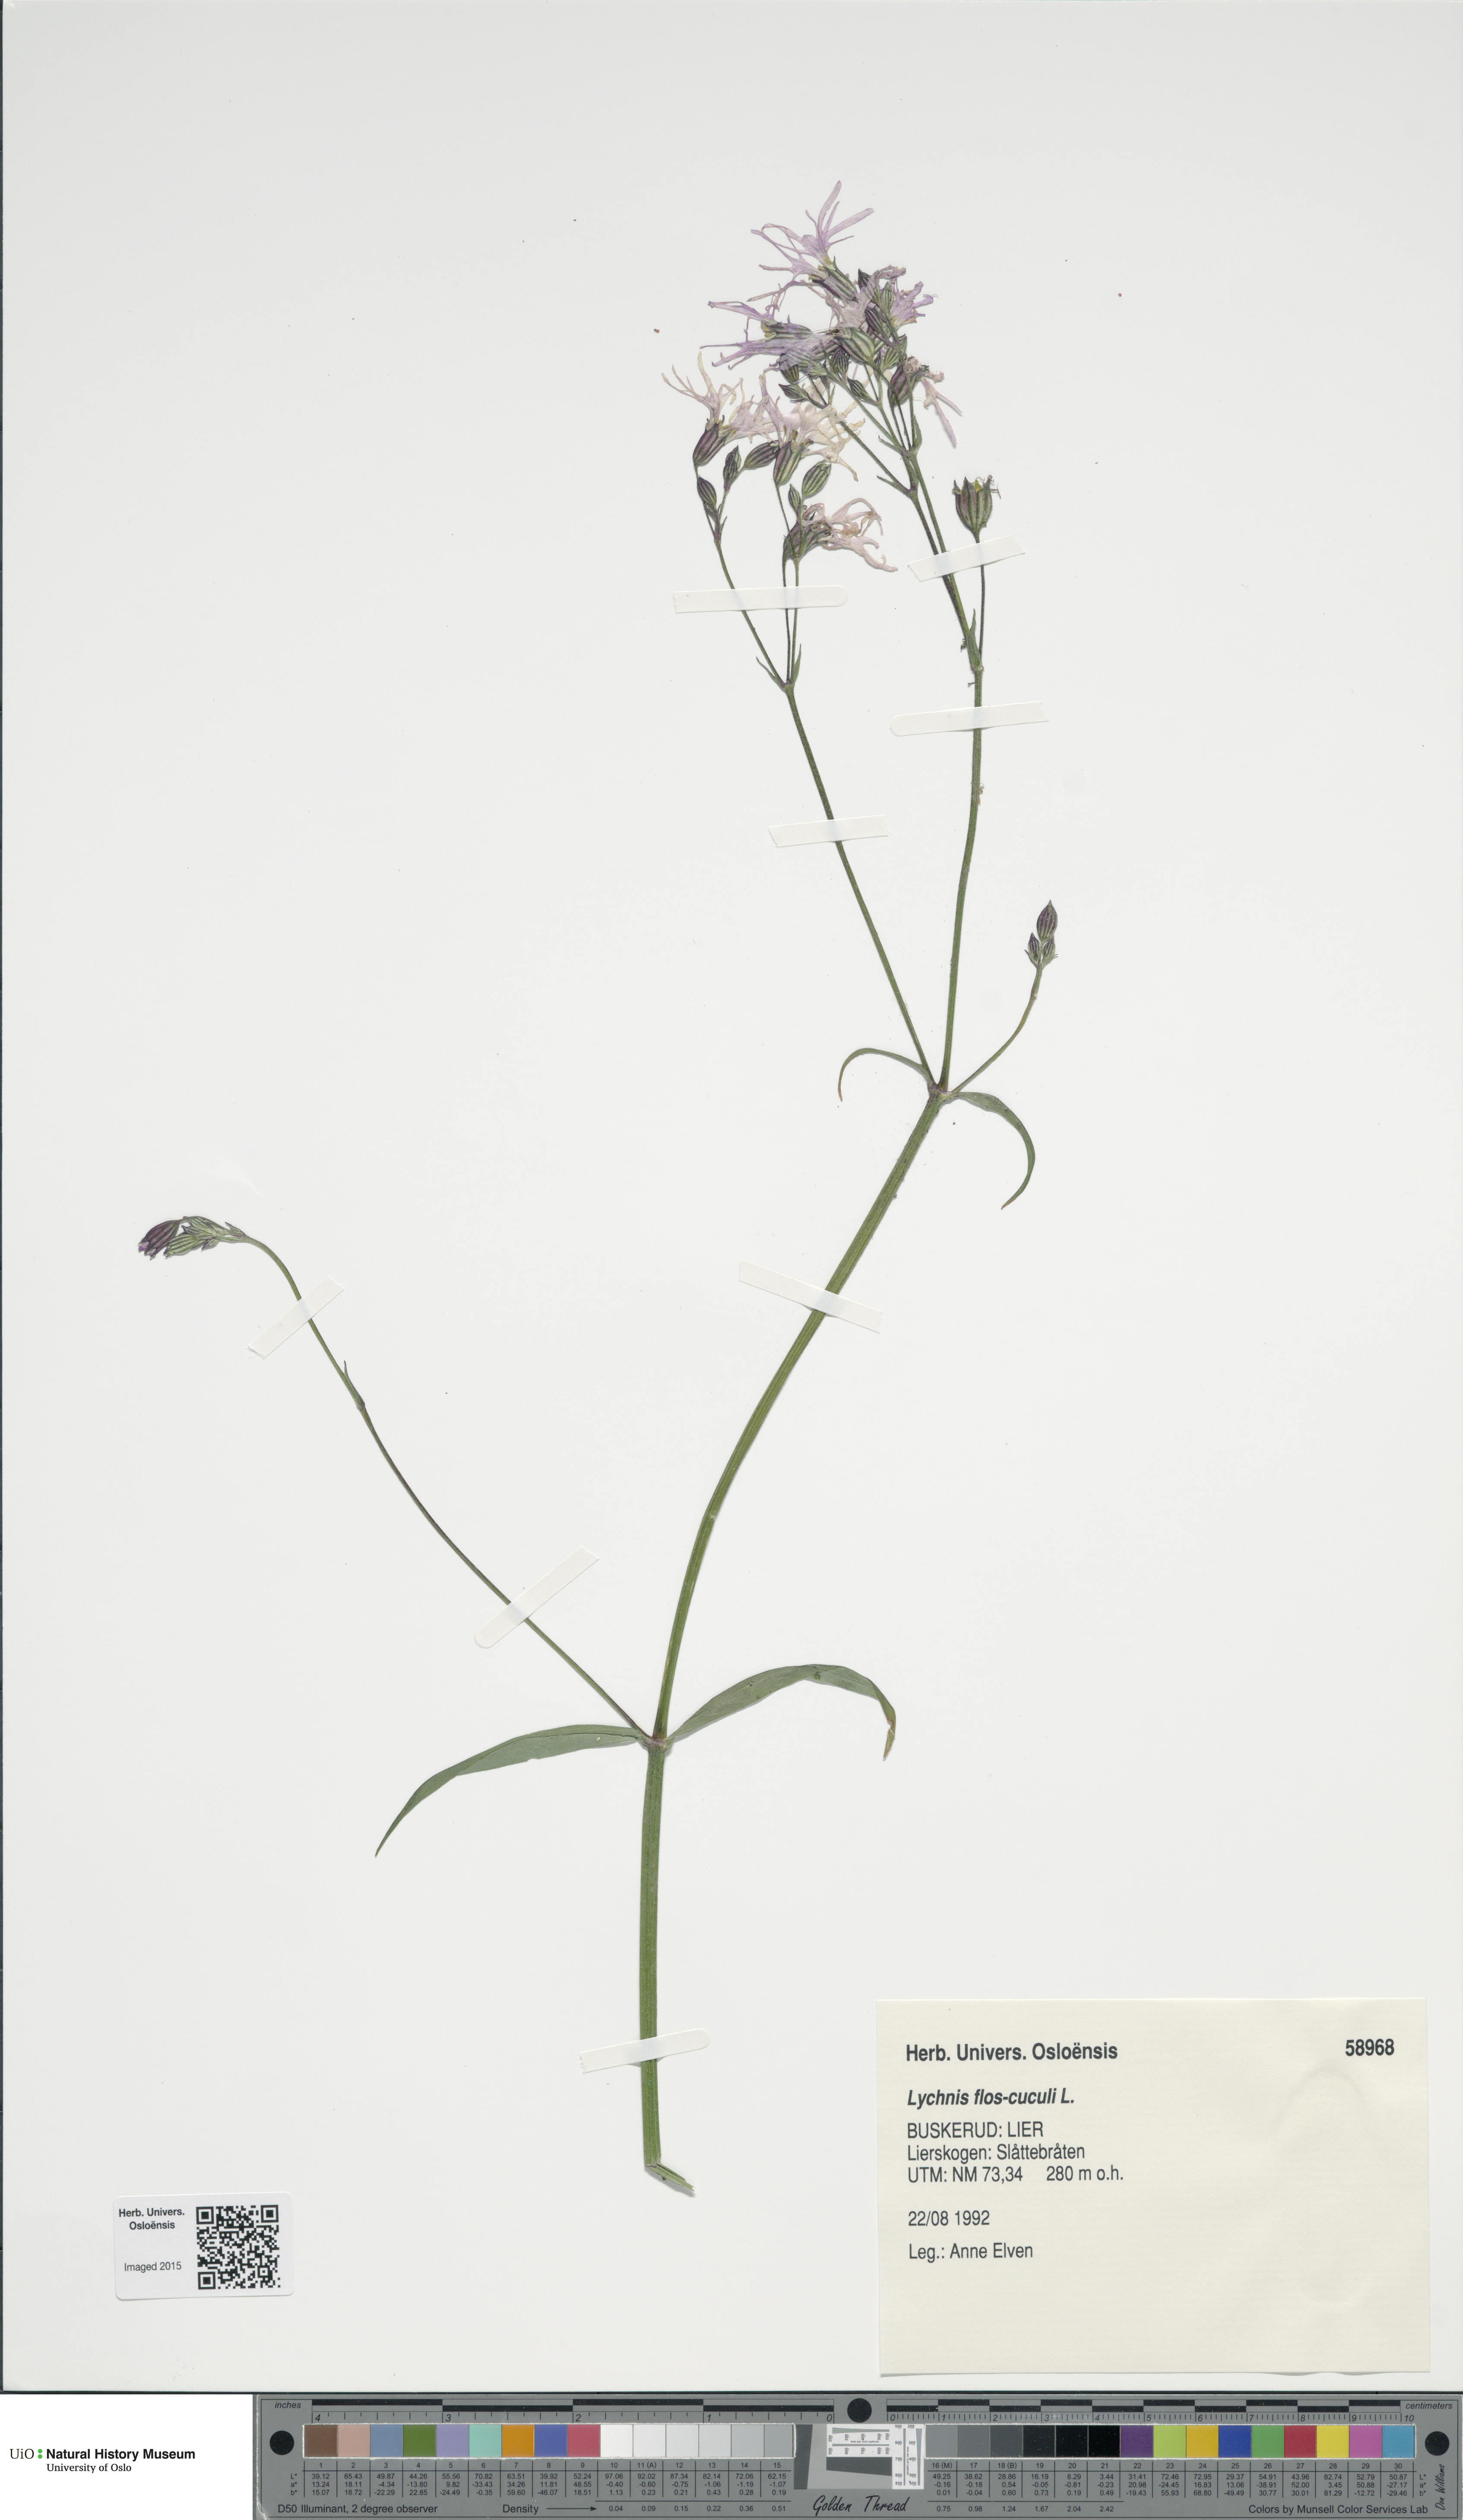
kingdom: Plantae
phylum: Tracheophyta
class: Magnoliopsida
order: Caryophyllales
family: Caryophyllaceae
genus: Silene
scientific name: Silene flos-cuculi
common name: Ragged-robin
